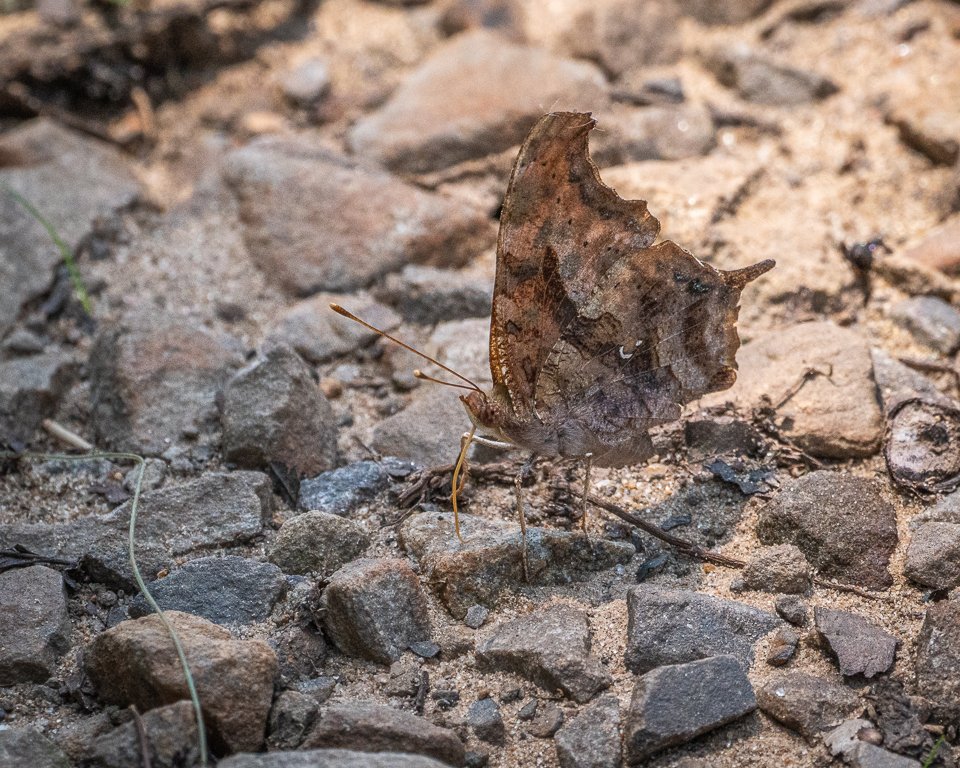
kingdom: Animalia
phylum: Arthropoda
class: Insecta
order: Lepidoptera
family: Nymphalidae
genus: Polygonia
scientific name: Polygonia interrogationis
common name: Question Mark
